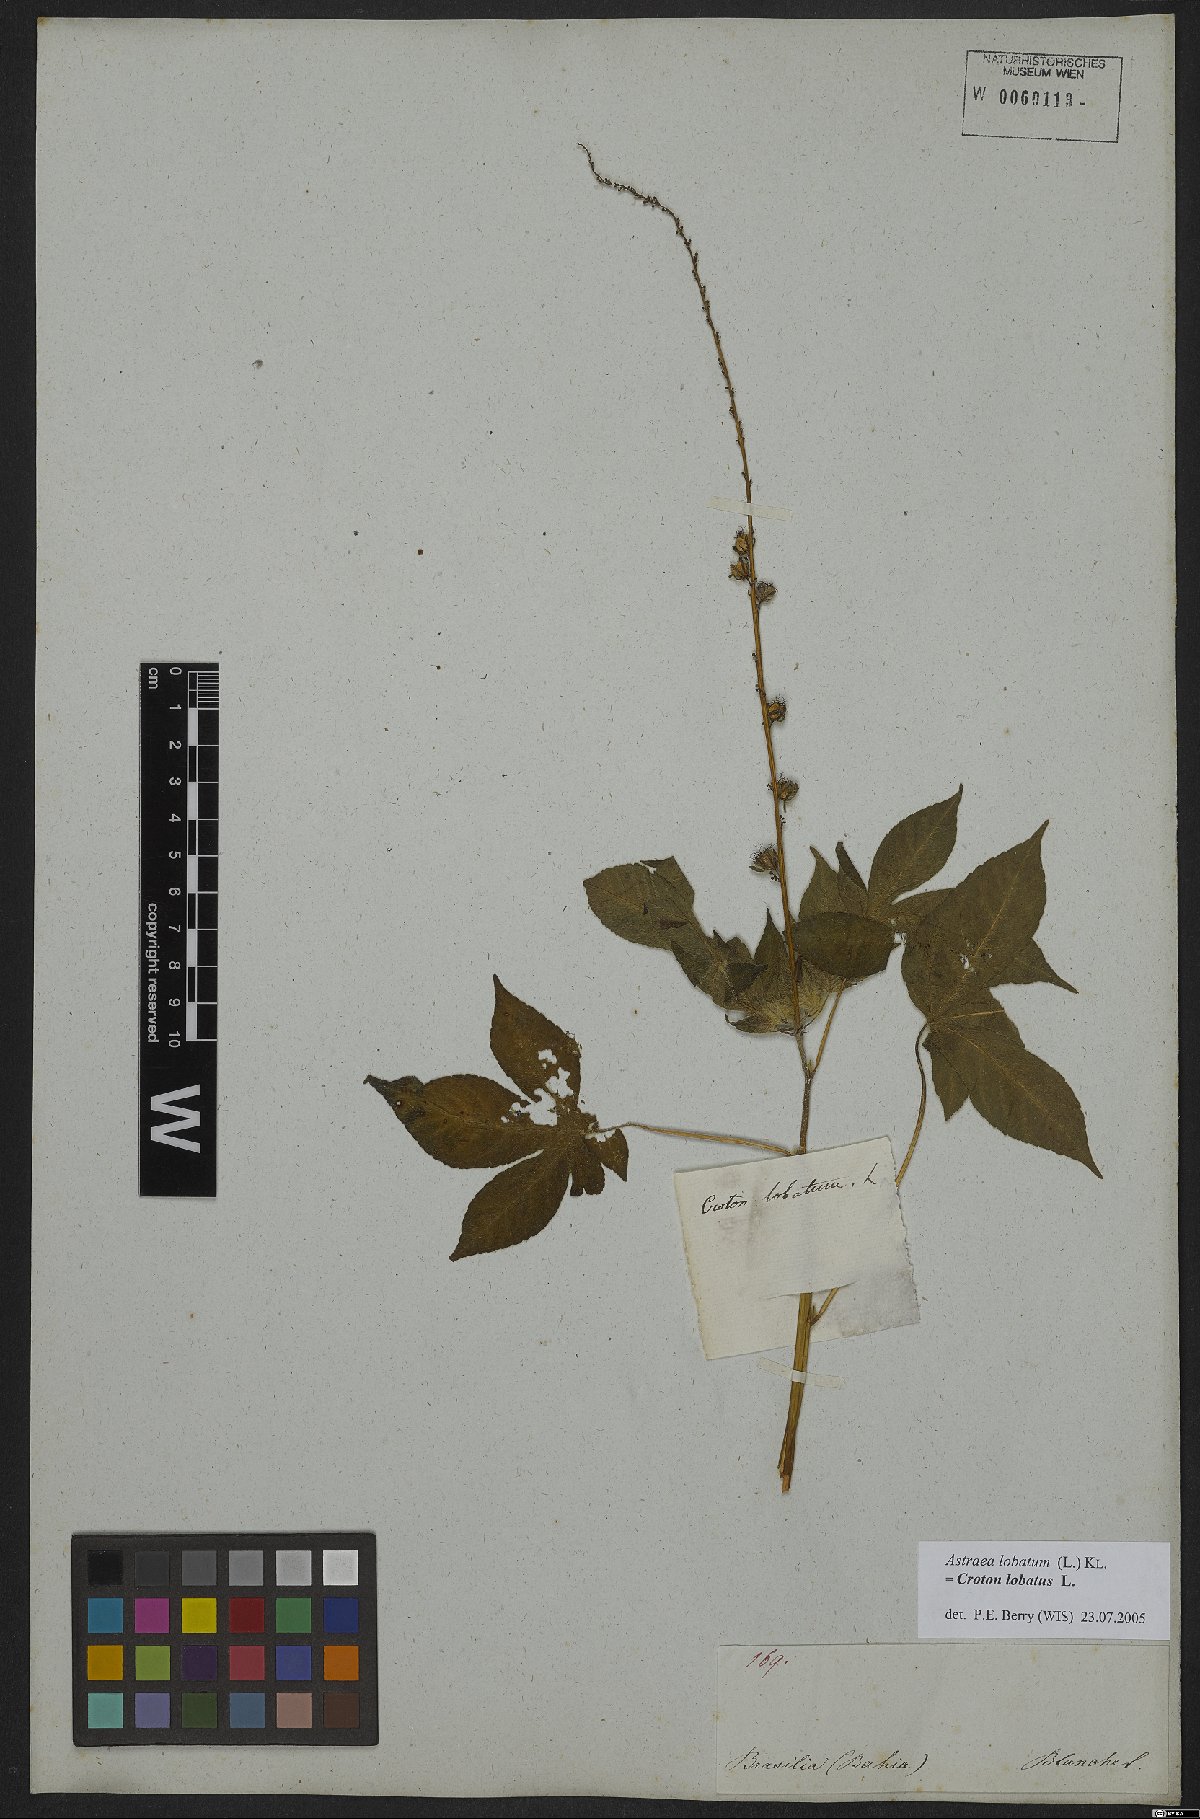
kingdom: Plantae
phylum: Tracheophyta
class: Magnoliopsida
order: Malpighiales
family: Euphorbiaceae
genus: Croton
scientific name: Croton lobatus
